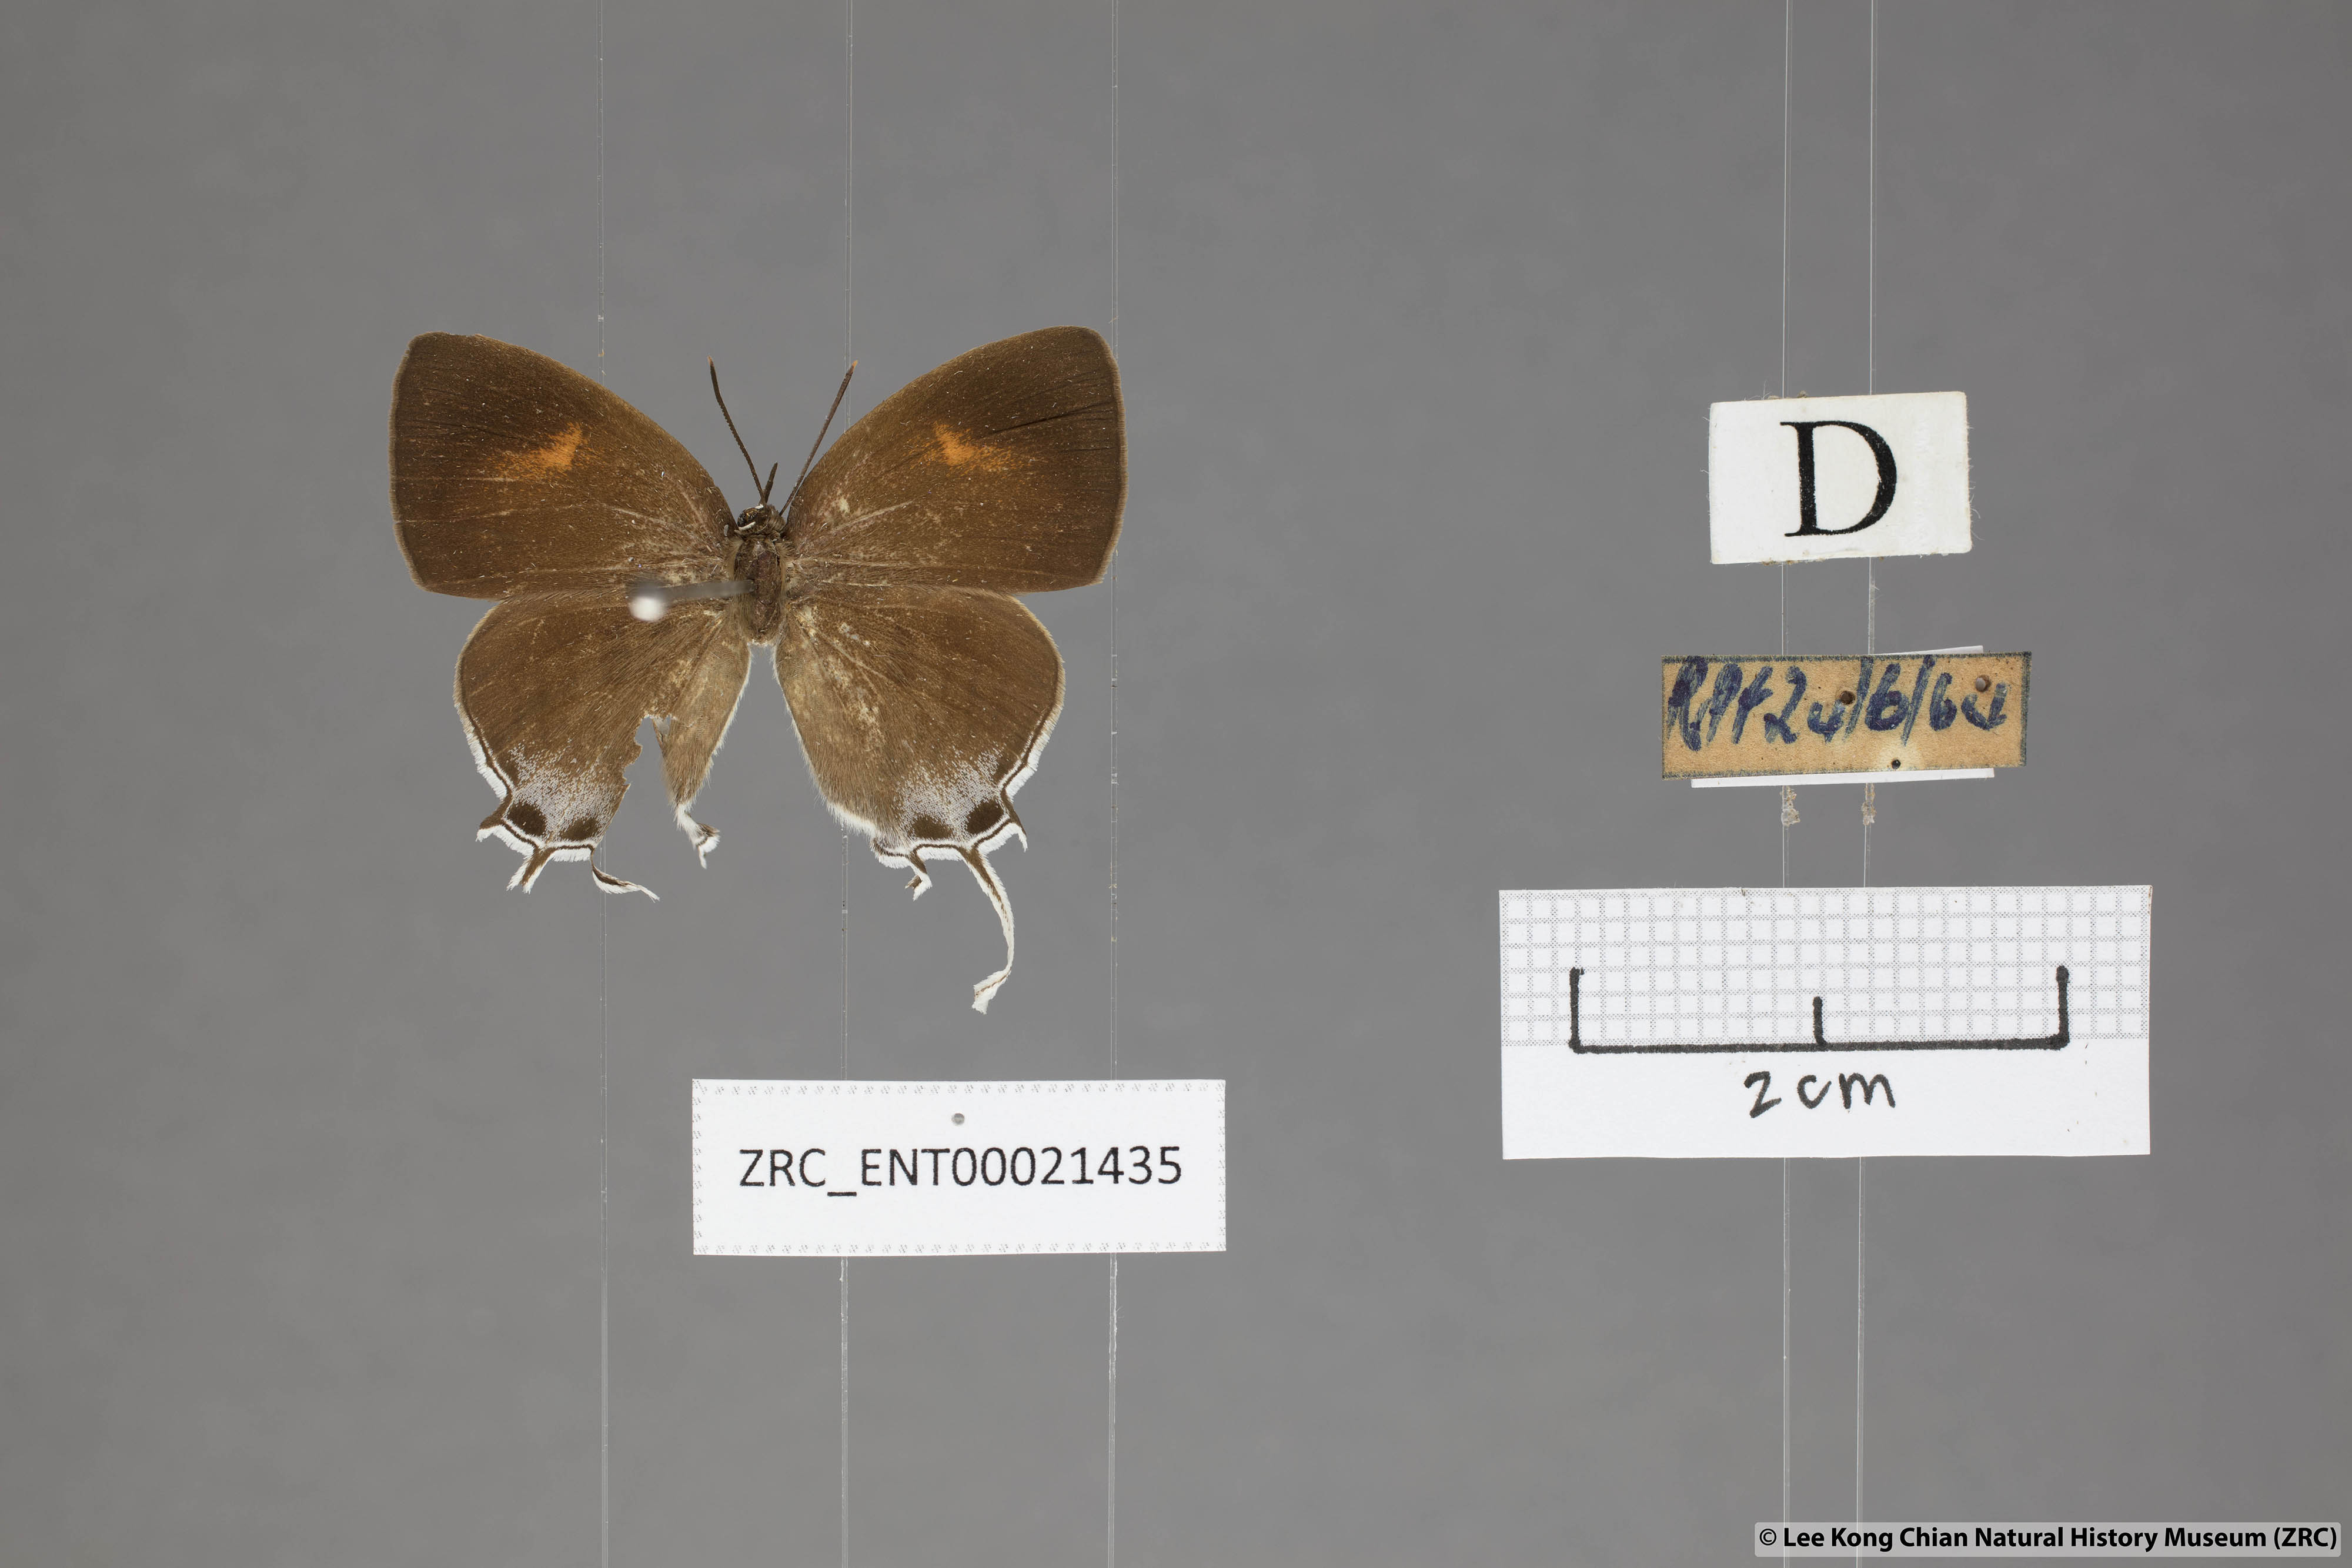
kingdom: Animalia
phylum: Arthropoda
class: Insecta
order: Lepidoptera
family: Lycaenidae
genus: Drupadia
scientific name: Drupadia theda
